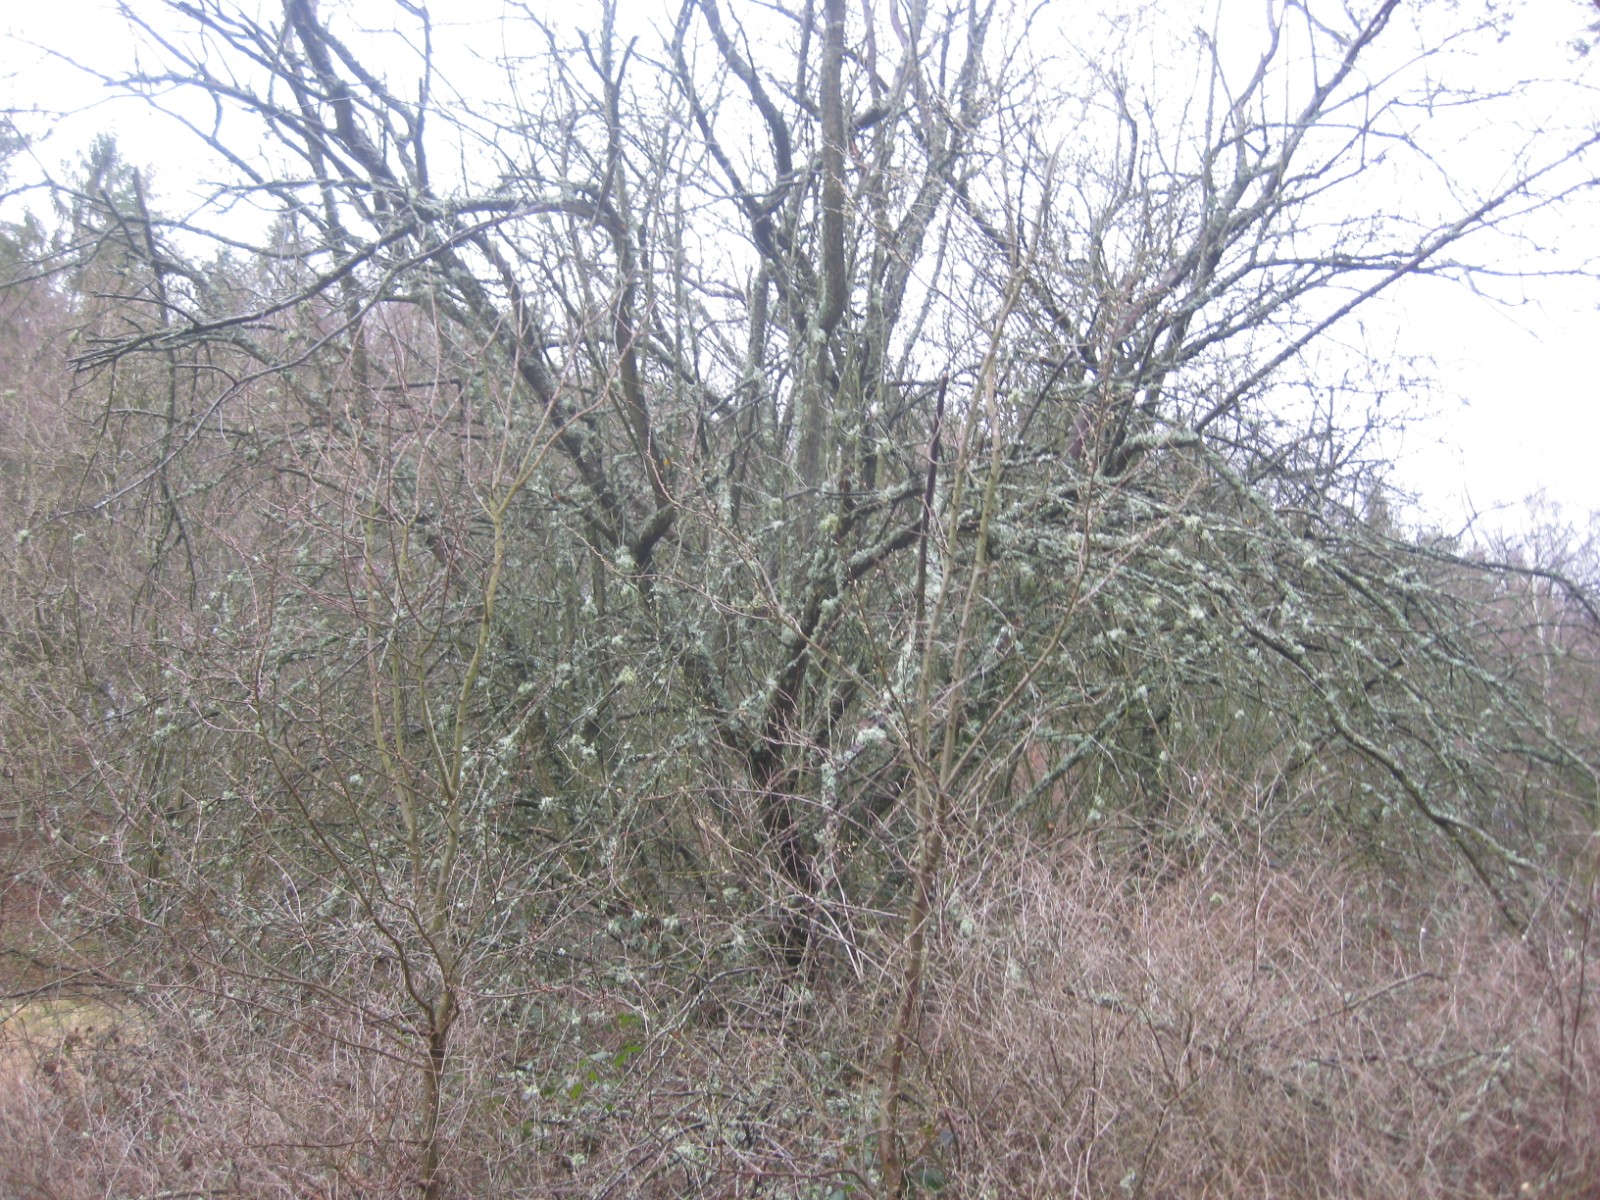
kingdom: Fungi
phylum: Ascomycota
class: Lecanoromycetes
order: Lecanorales
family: Parmeliaceae
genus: Evernia
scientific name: Evernia prunastri
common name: almindelig slåenlav
